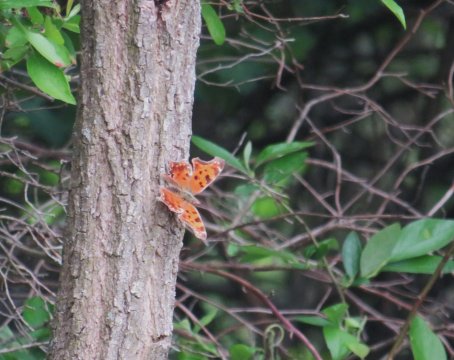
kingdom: Animalia
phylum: Arthropoda
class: Insecta
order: Lepidoptera
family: Nymphalidae
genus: Polygonia
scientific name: Polygonia comma
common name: Eastern Comma
